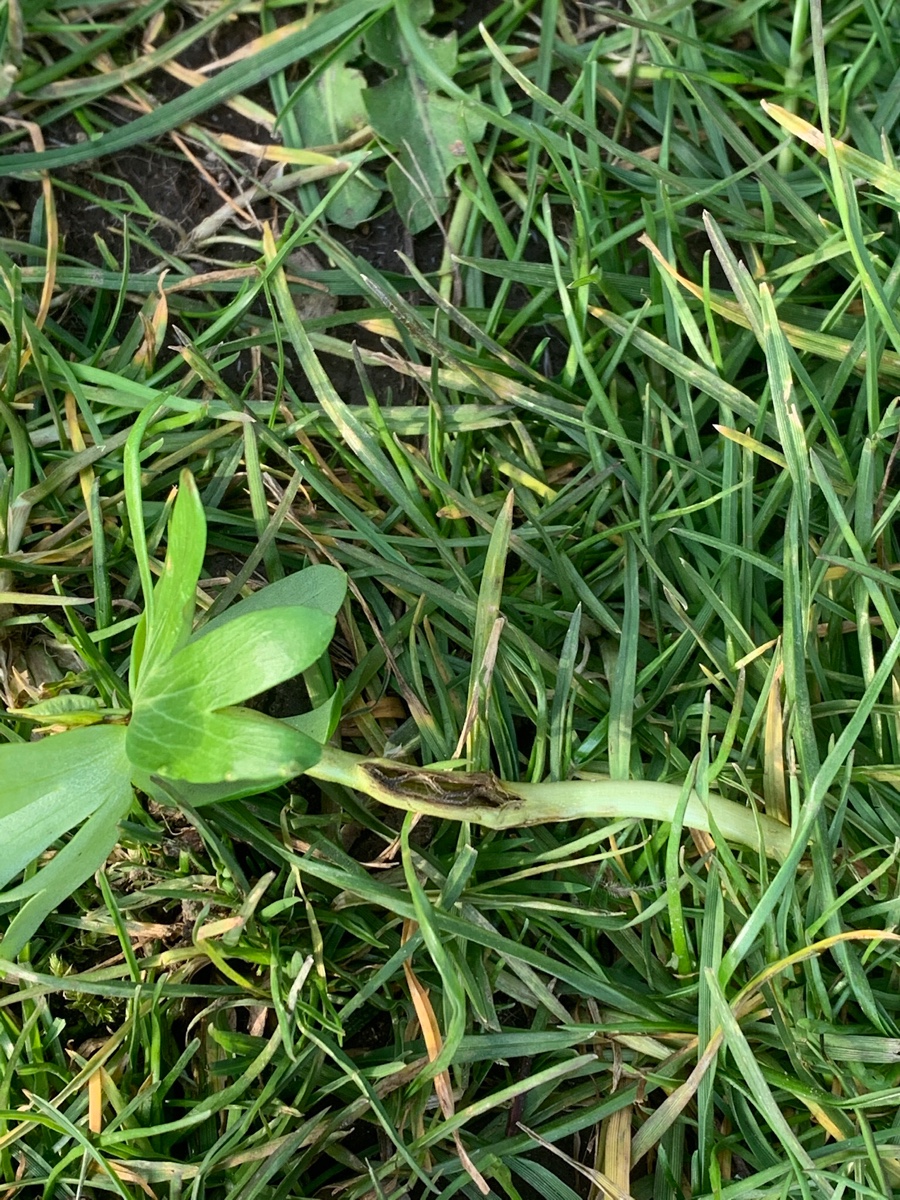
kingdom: Fungi
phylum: Basidiomycota
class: Ustilaginomycetes
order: Urocystidales
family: Urocystidaceae
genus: Urocystis
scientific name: Urocystis eranthidis
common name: erantis-brand
